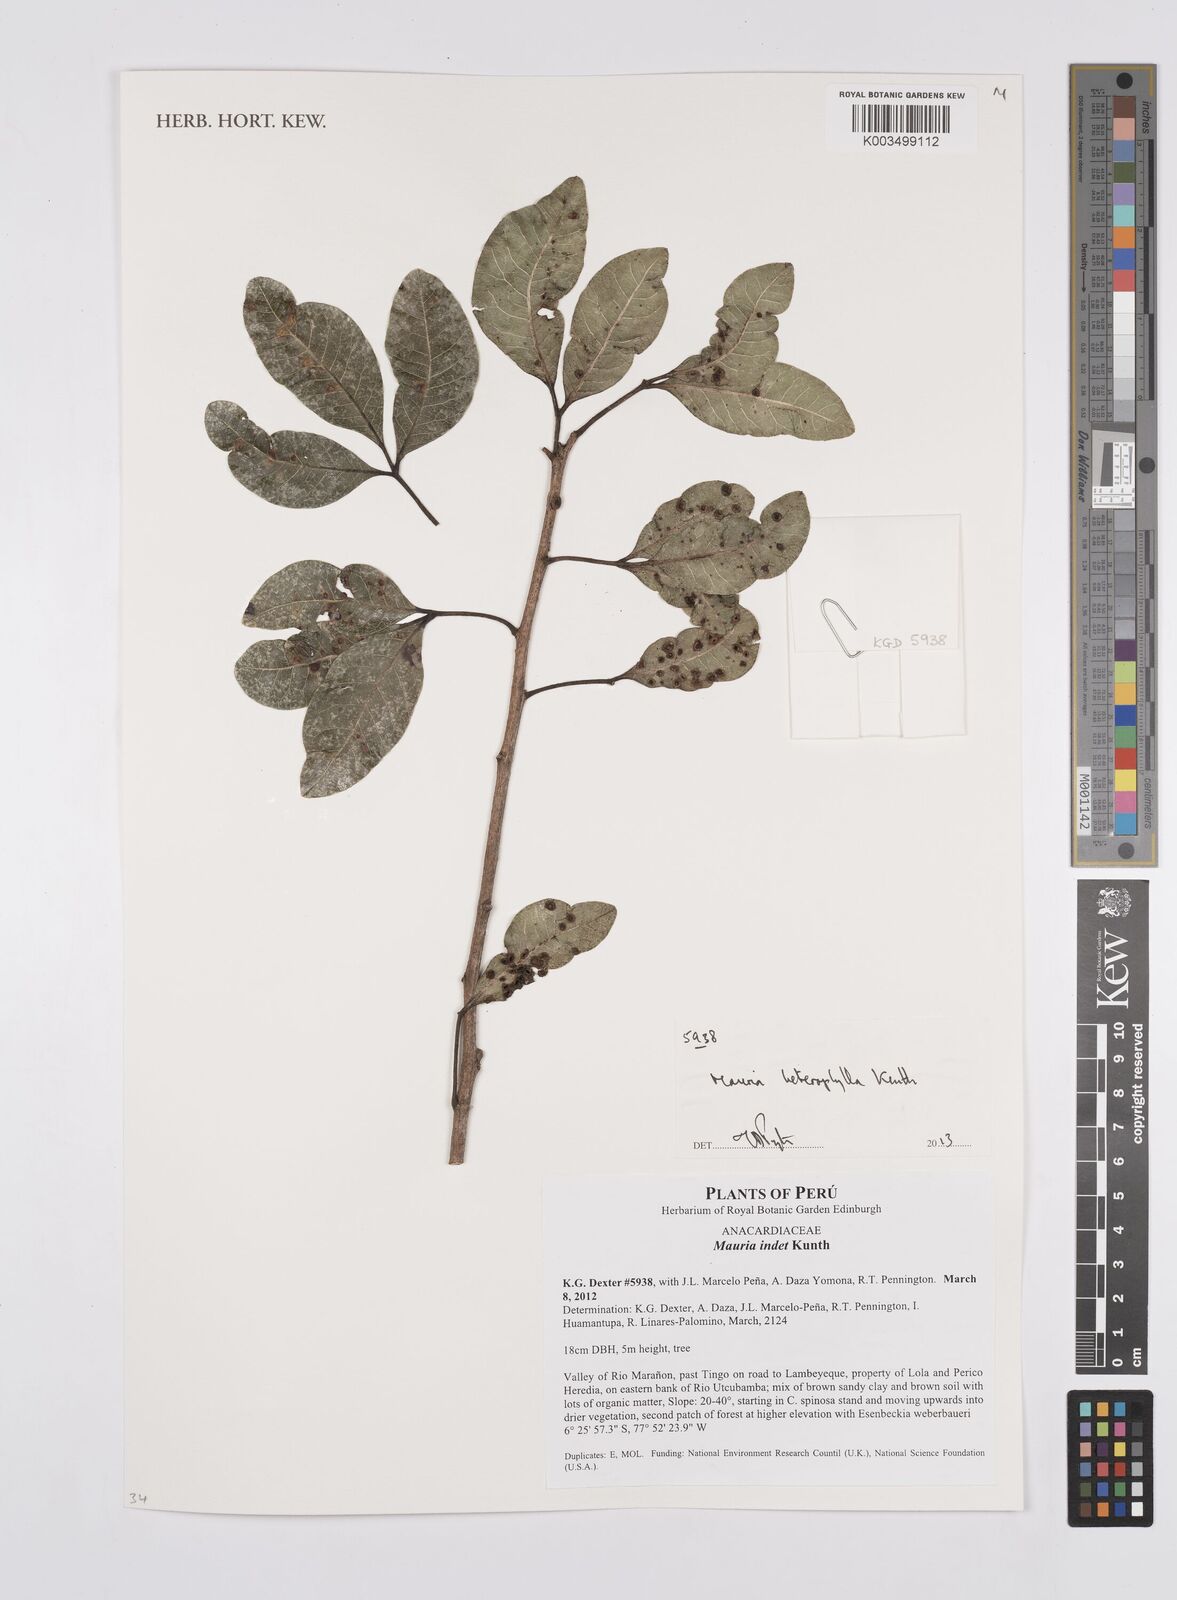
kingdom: Plantae
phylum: Tracheophyta
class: Magnoliopsida
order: Sapindales
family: Anacardiaceae
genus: Mauria
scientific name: Mauria heterophylla
